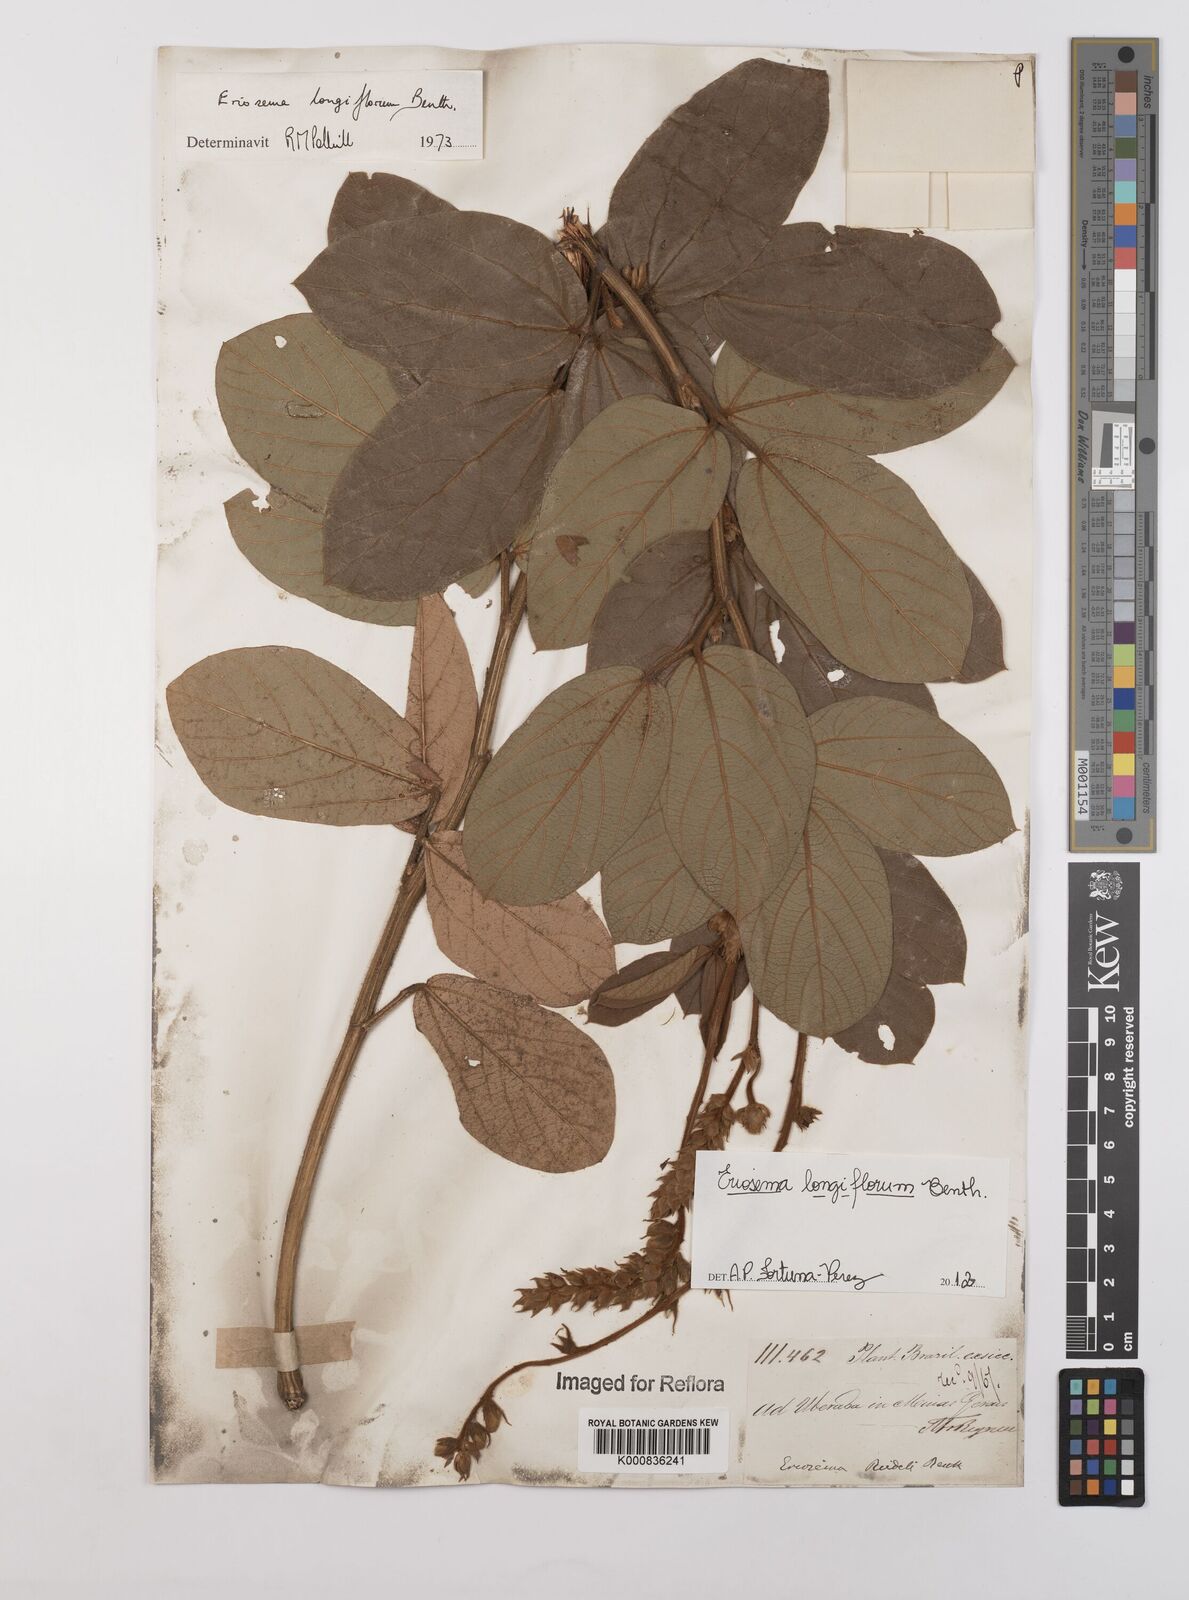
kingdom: Plantae
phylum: Tracheophyta
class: Magnoliopsida
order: Fabales
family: Fabaceae
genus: Eriosema
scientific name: Eriosema longiflorum
